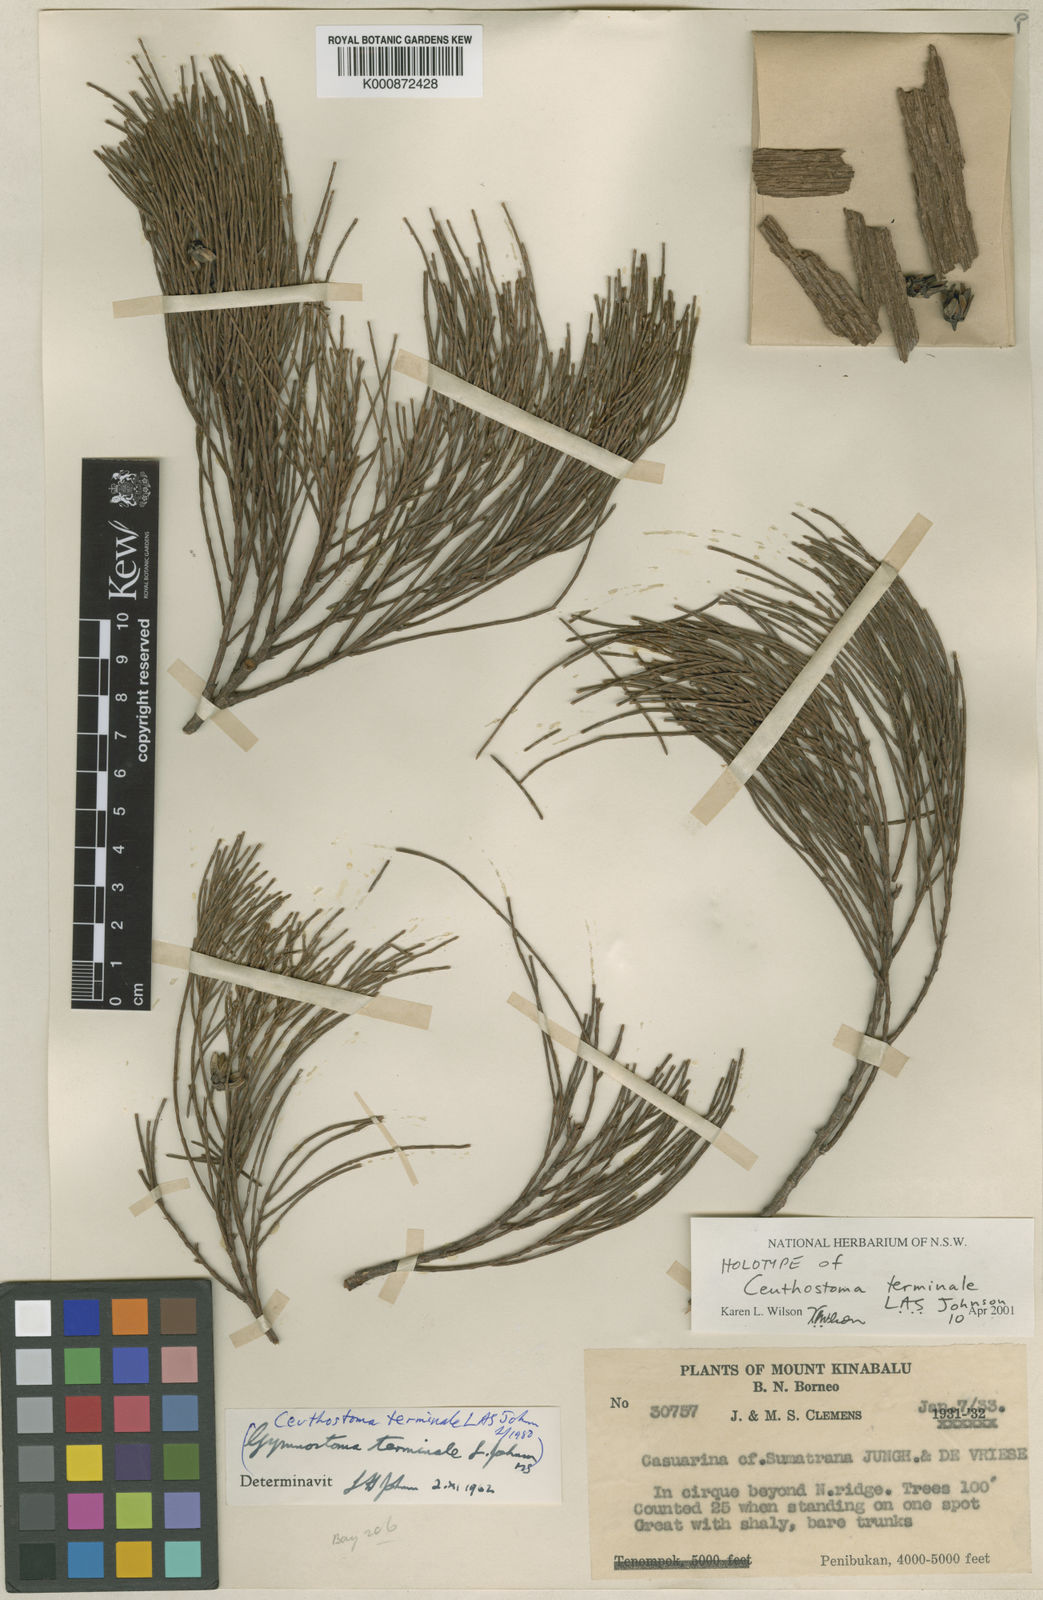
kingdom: Plantae
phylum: Tracheophyta
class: Magnoliopsida
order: Fagales
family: Casuarinaceae
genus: Ceuthostoma
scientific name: Ceuthostoma terminale
